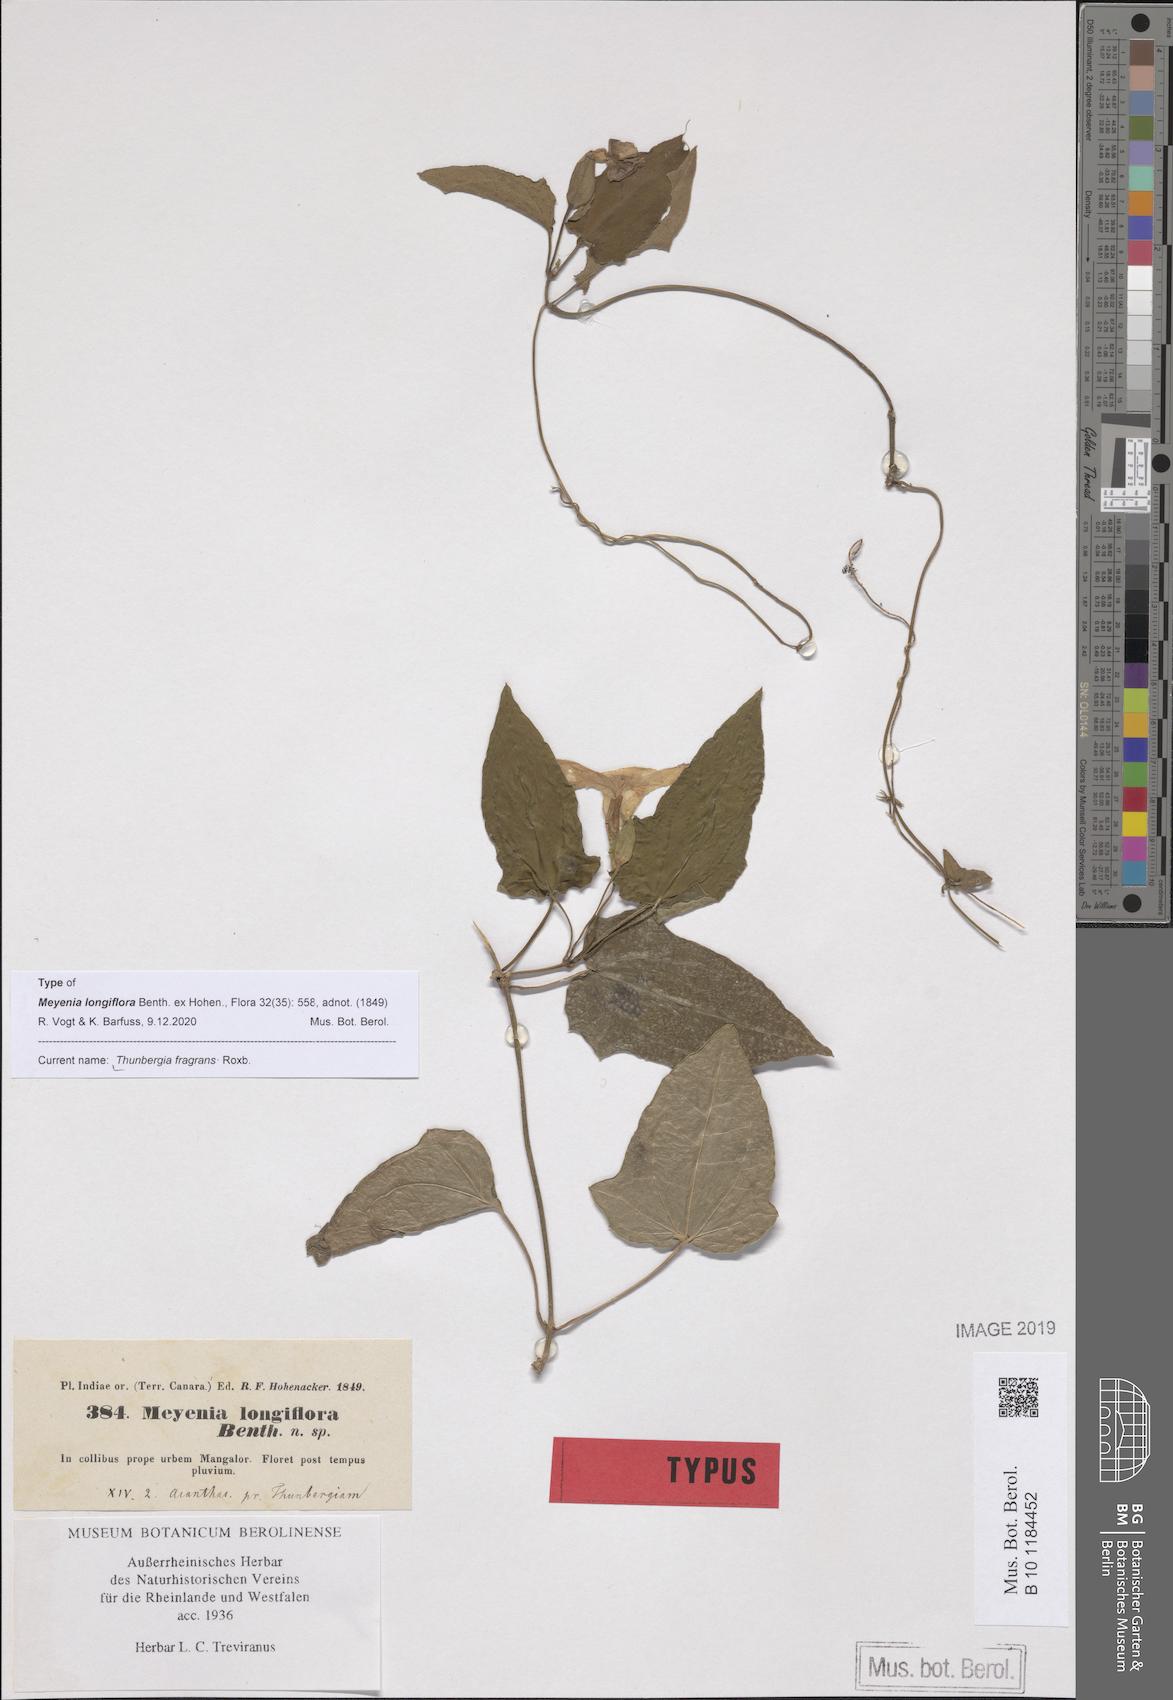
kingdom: Plantae
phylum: Tracheophyta
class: Magnoliopsida
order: Lamiales
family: Acanthaceae
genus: Thunbergia
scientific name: Thunbergia fragrans
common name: Whitelady
